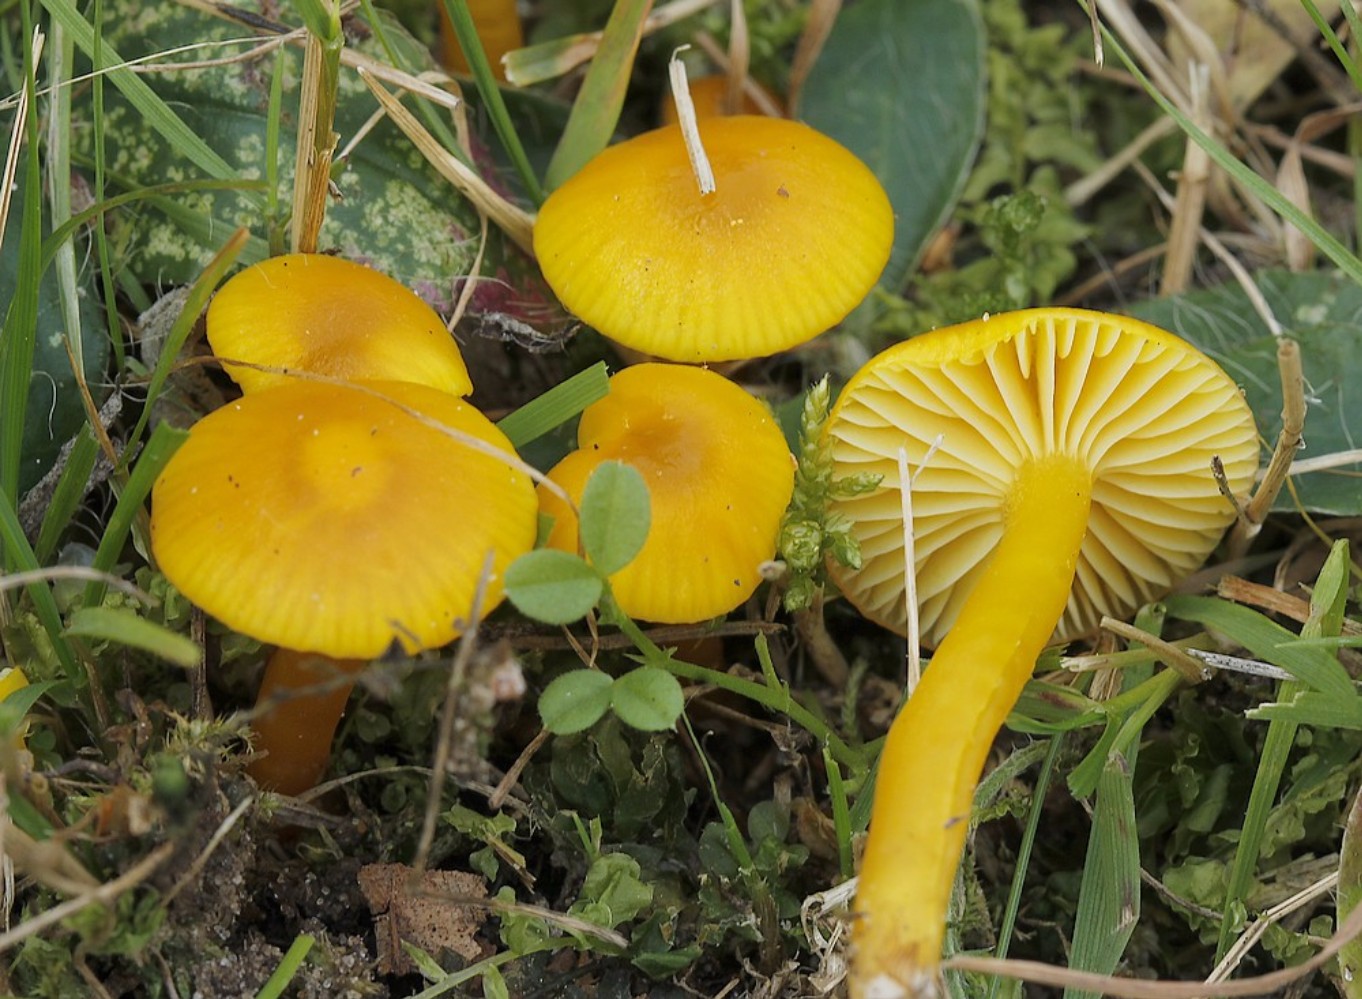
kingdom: Fungi
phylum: Basidiomycota
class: Agaricomycetes
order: Agaricales
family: Hygrophoraceae
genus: Hygrocybe
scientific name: Hygrocybe ceracea
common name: voksgul vokshat
